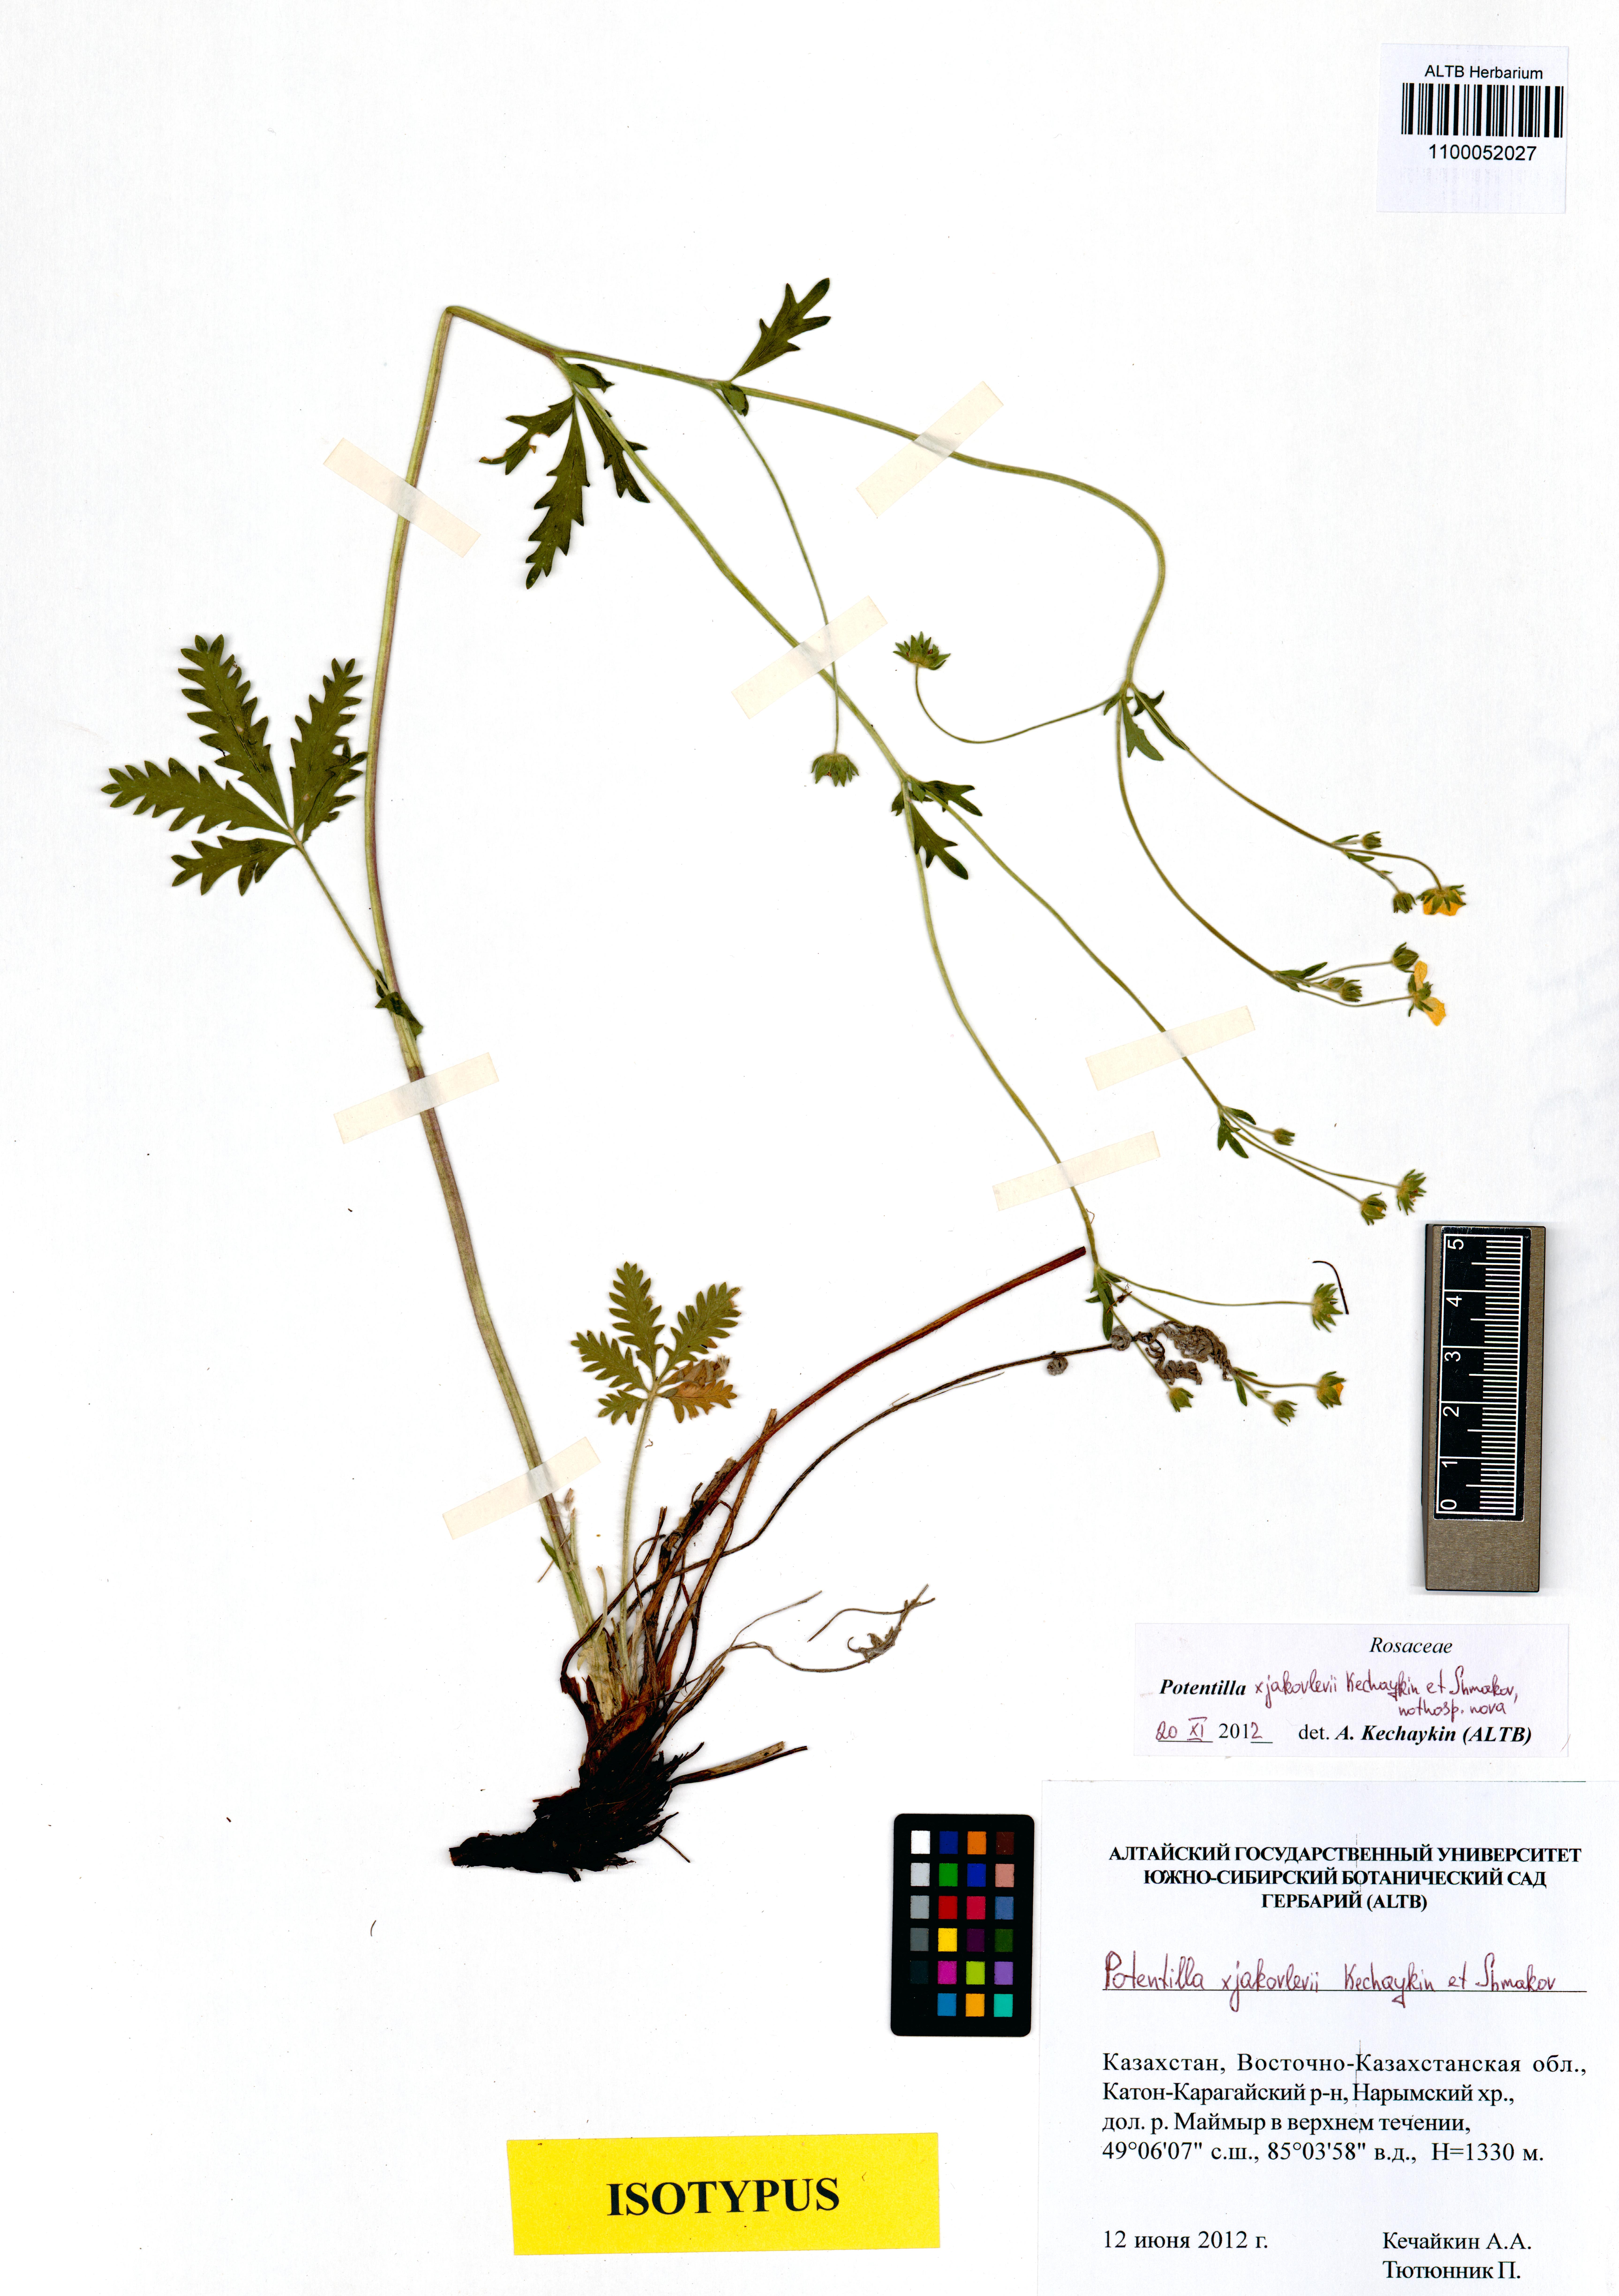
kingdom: Plantae
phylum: Tracheophyta
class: Magnoliopsida
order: Rosales
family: Rosaceae
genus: Potentilla
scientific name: Potentilla jakovlevii
